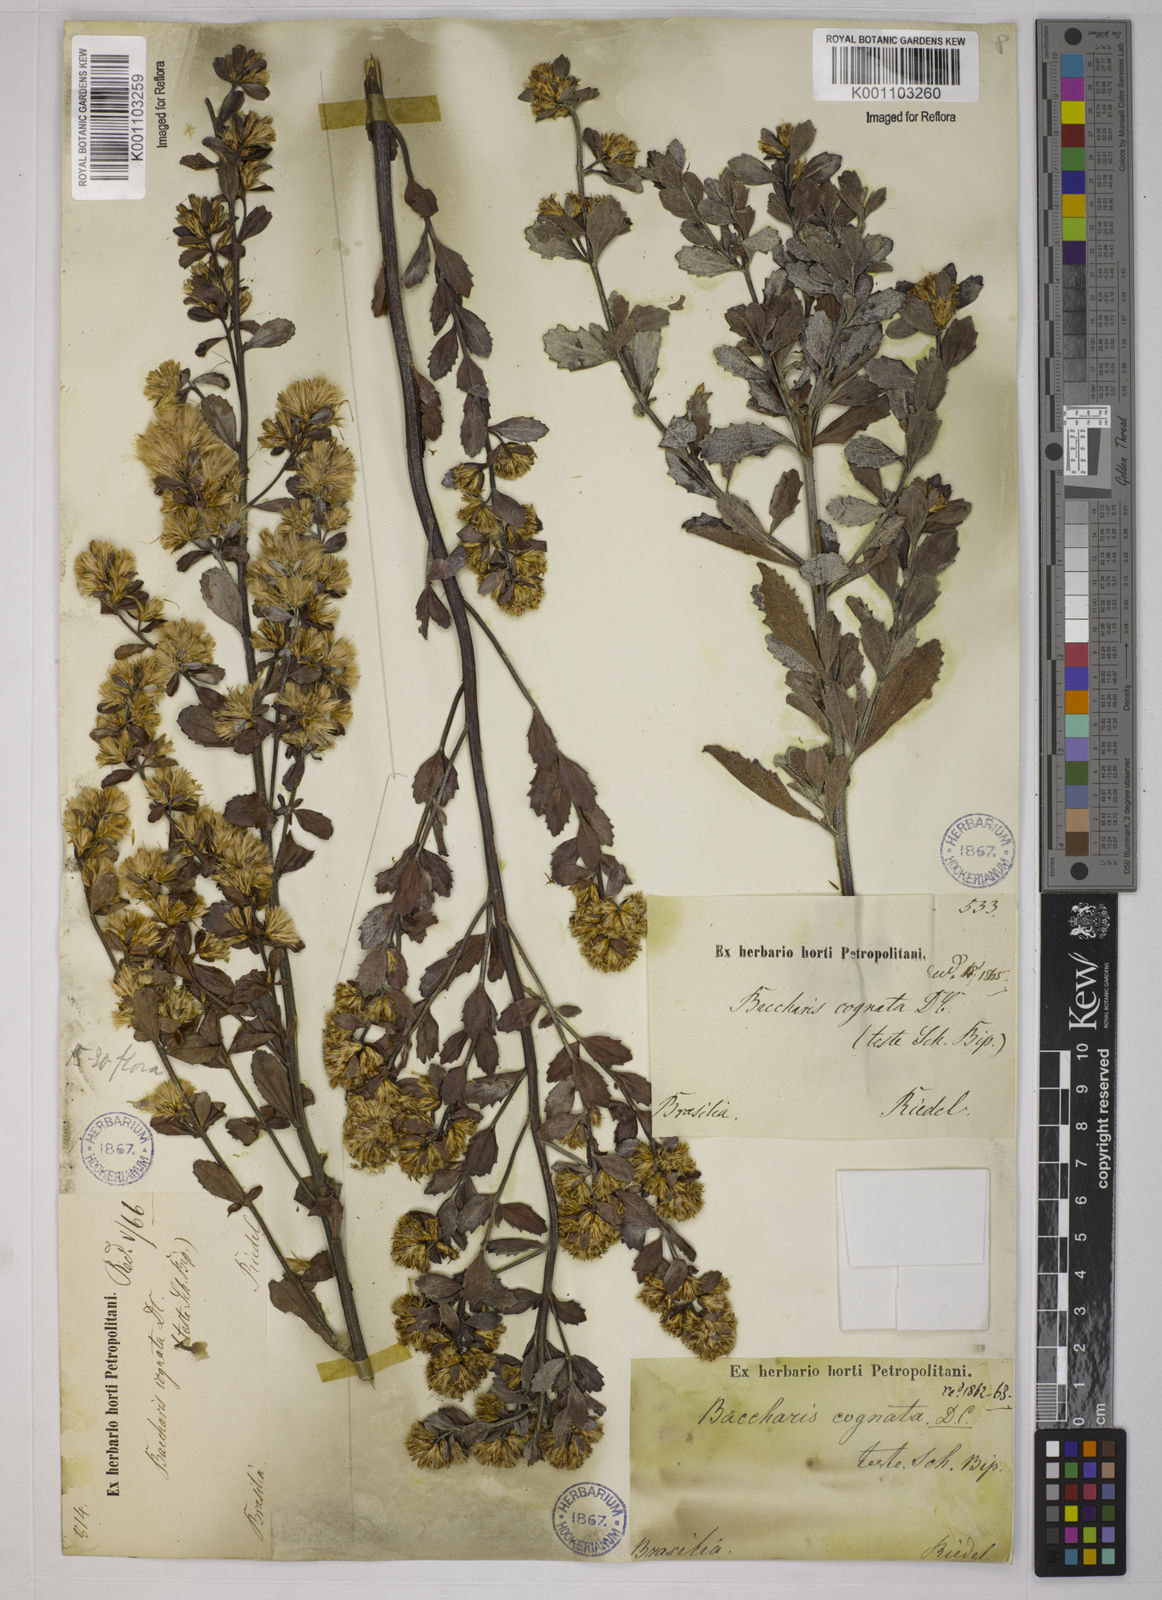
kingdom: Plantae
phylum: Tracheophyta
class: Magnoliopsida
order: Asterales
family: Asteraceae
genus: Baccharis
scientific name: Baccharis cognata
